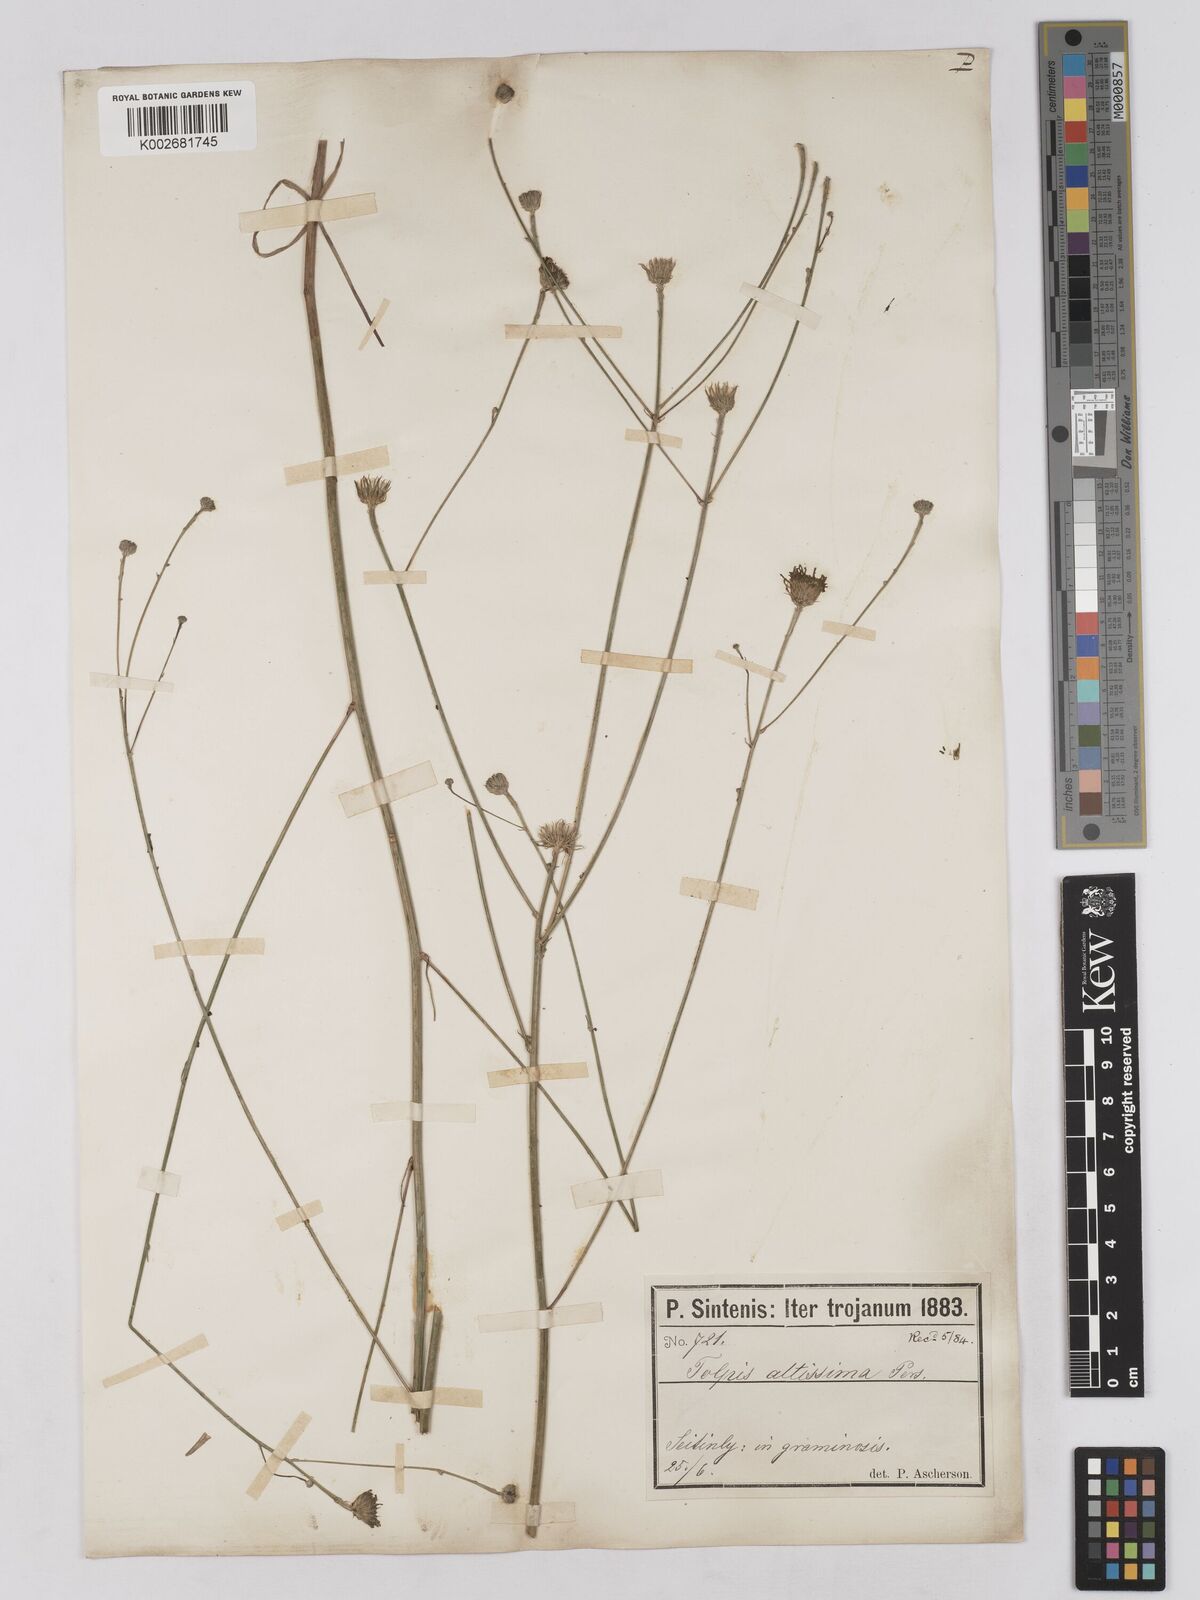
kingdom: Plantae
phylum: Tracheophyta
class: Magnoliopsida
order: Asterales
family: Asteraceae
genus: Tolpis
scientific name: Tolpis virgata
